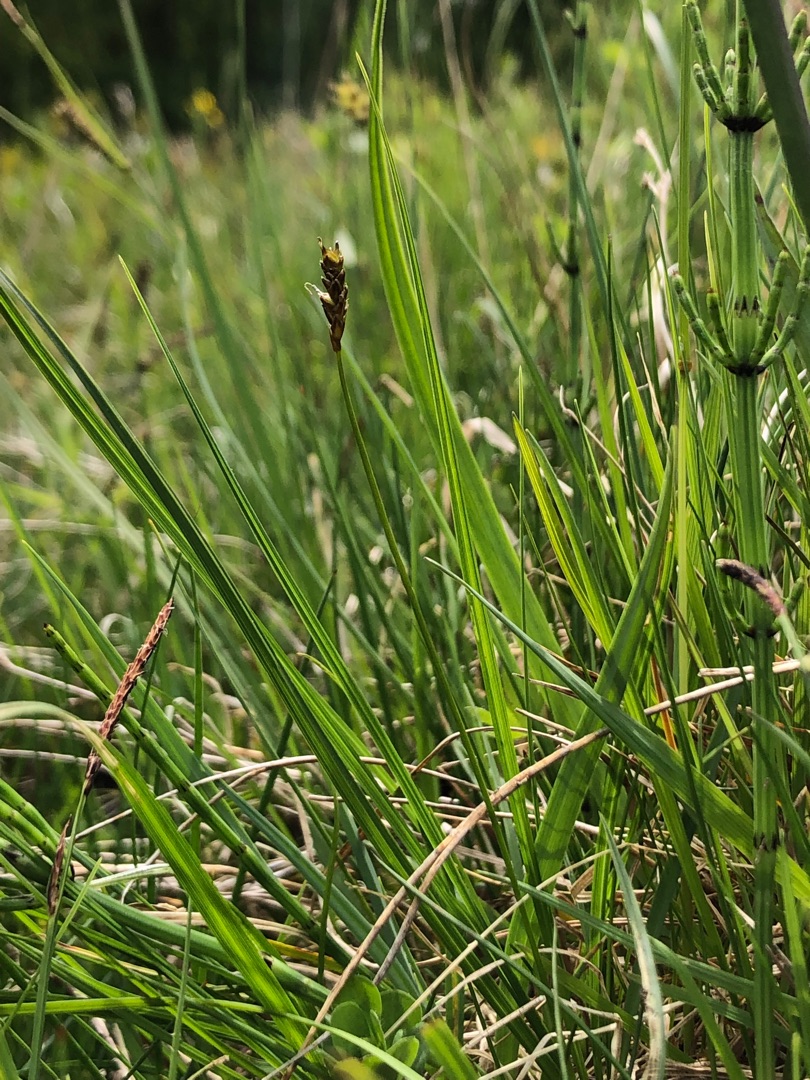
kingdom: Plantae
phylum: Tracheophyta
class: Liliopsida
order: Poales
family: Cyperaceae
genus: Carex
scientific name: Carex dioica
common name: Tvebo star
